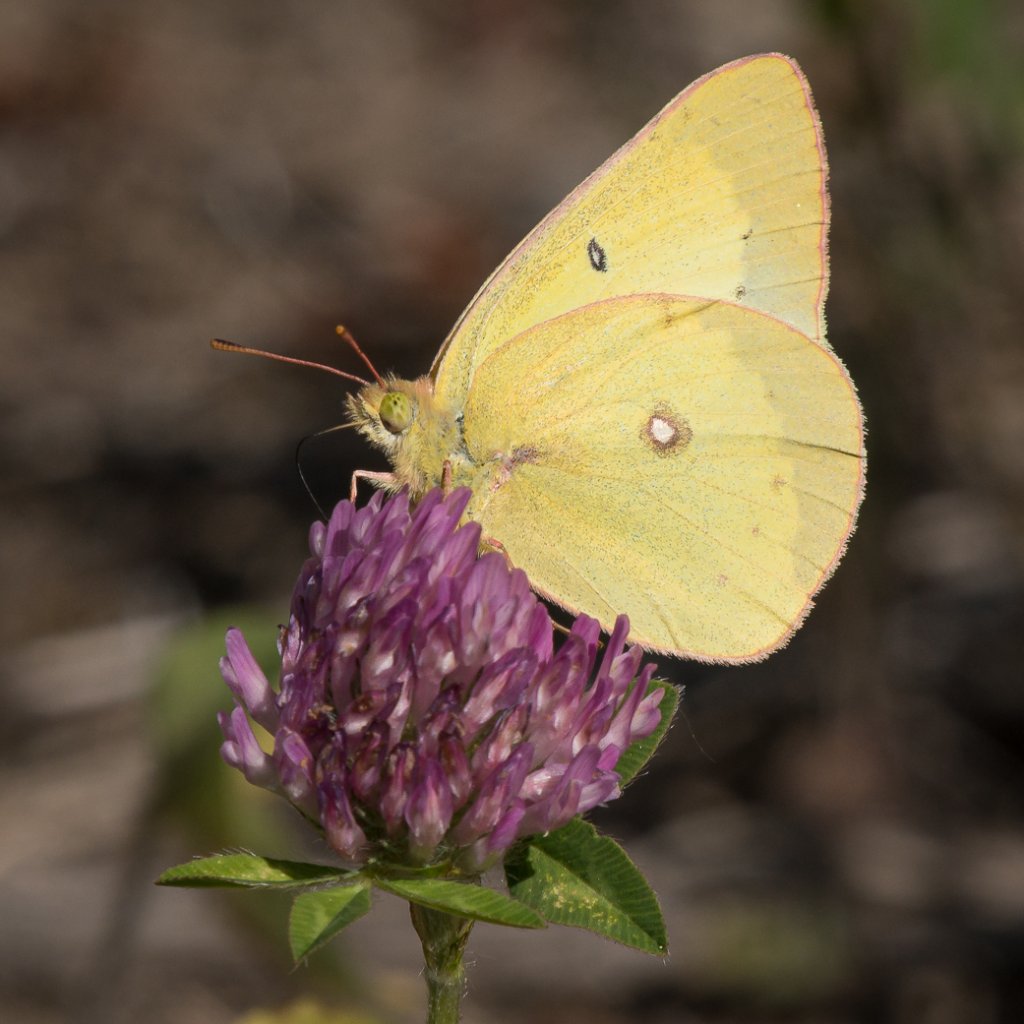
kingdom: Animalia
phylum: Arthropoda
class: Insecta
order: Lepidoptera
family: Pieridae
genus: Colias
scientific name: Colias philodice
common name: Clouded Sulphur
